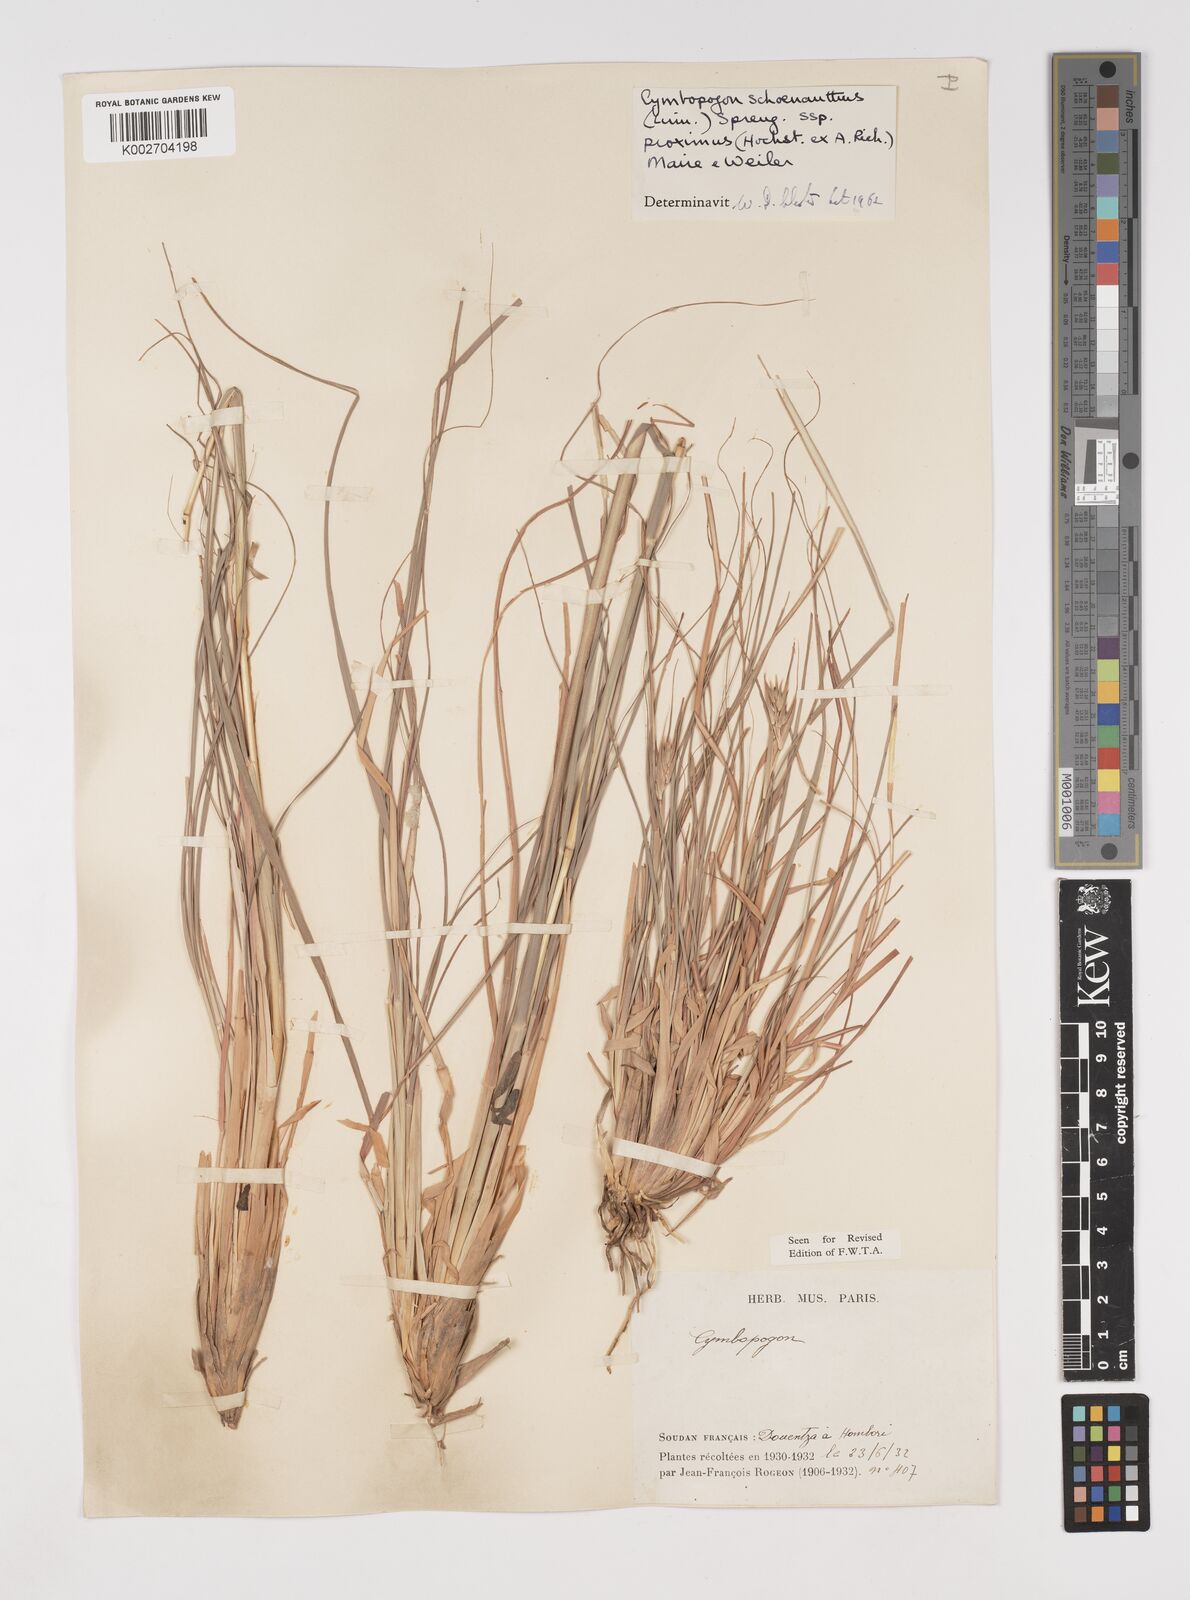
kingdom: Plantae
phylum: Tracheophyta
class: Liliopsida
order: Poales
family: Poaceae
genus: Cymbopogon
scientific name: Cymbopogon schoenanthus
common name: Geranium grass
